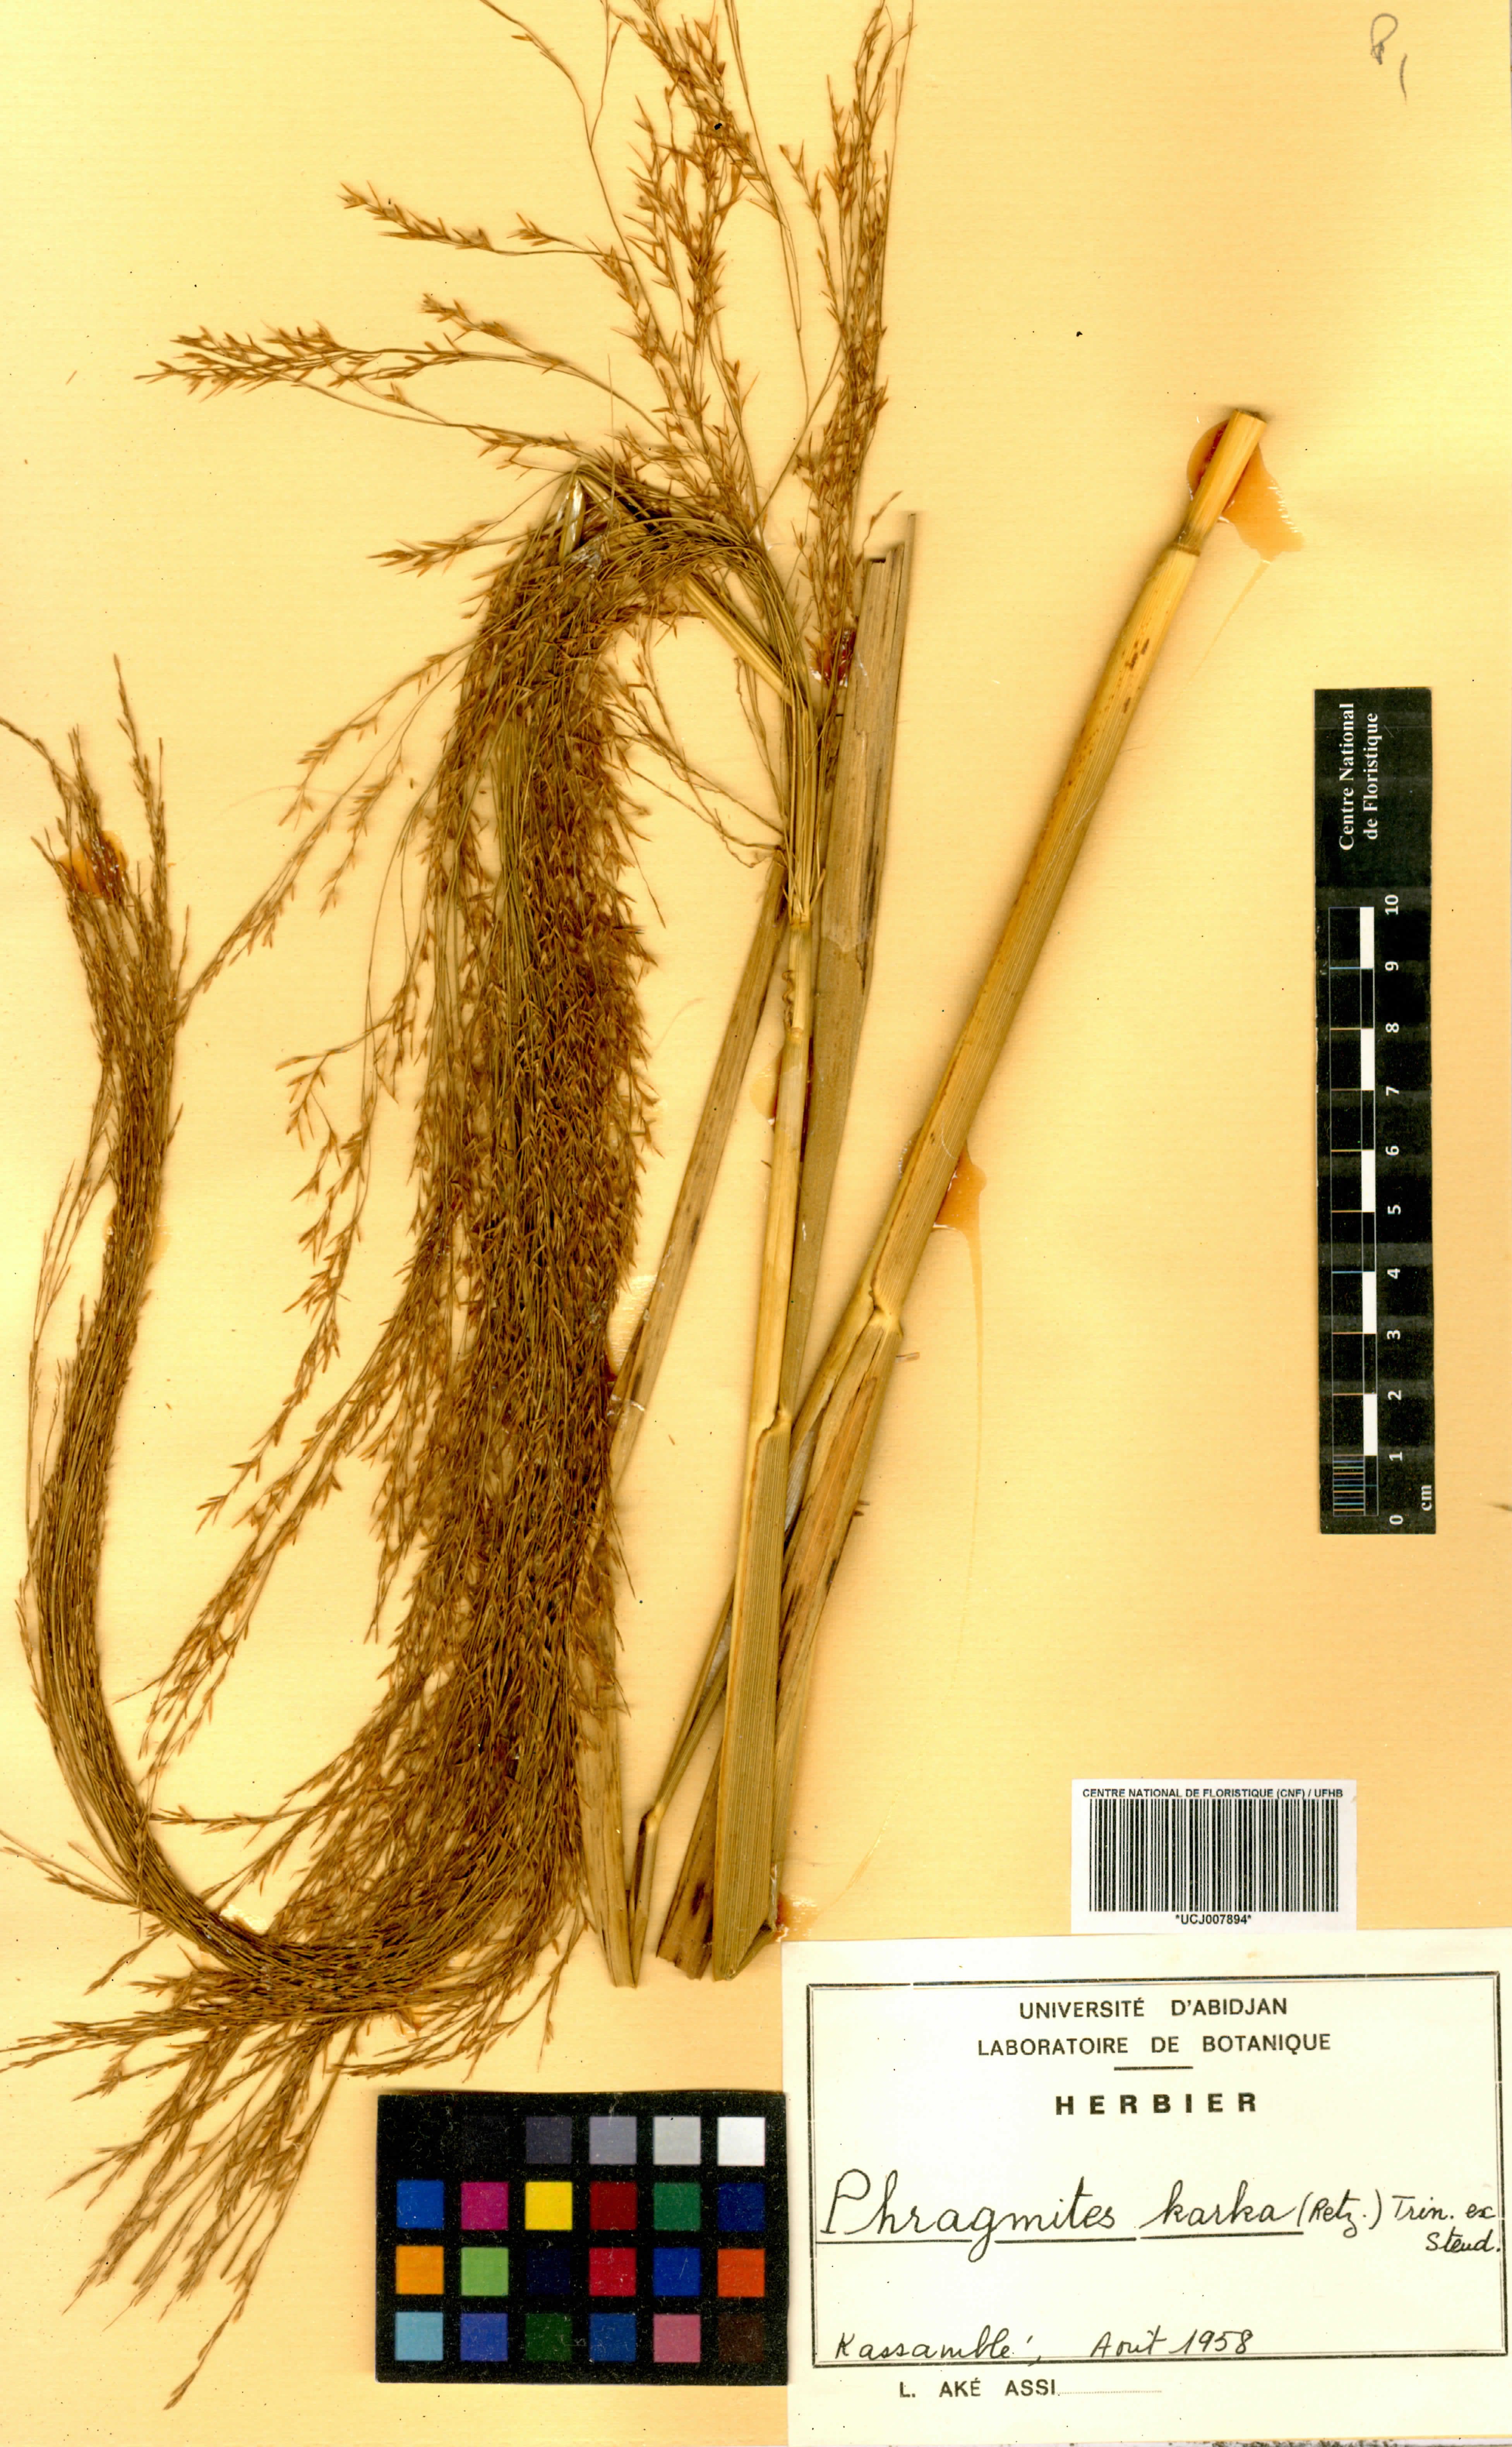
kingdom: Plantae
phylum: Tracheophyta
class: Liliopsida
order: Poales
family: Poaceae
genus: Phragmites
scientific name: Phragmites karka
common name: Tropical reed
